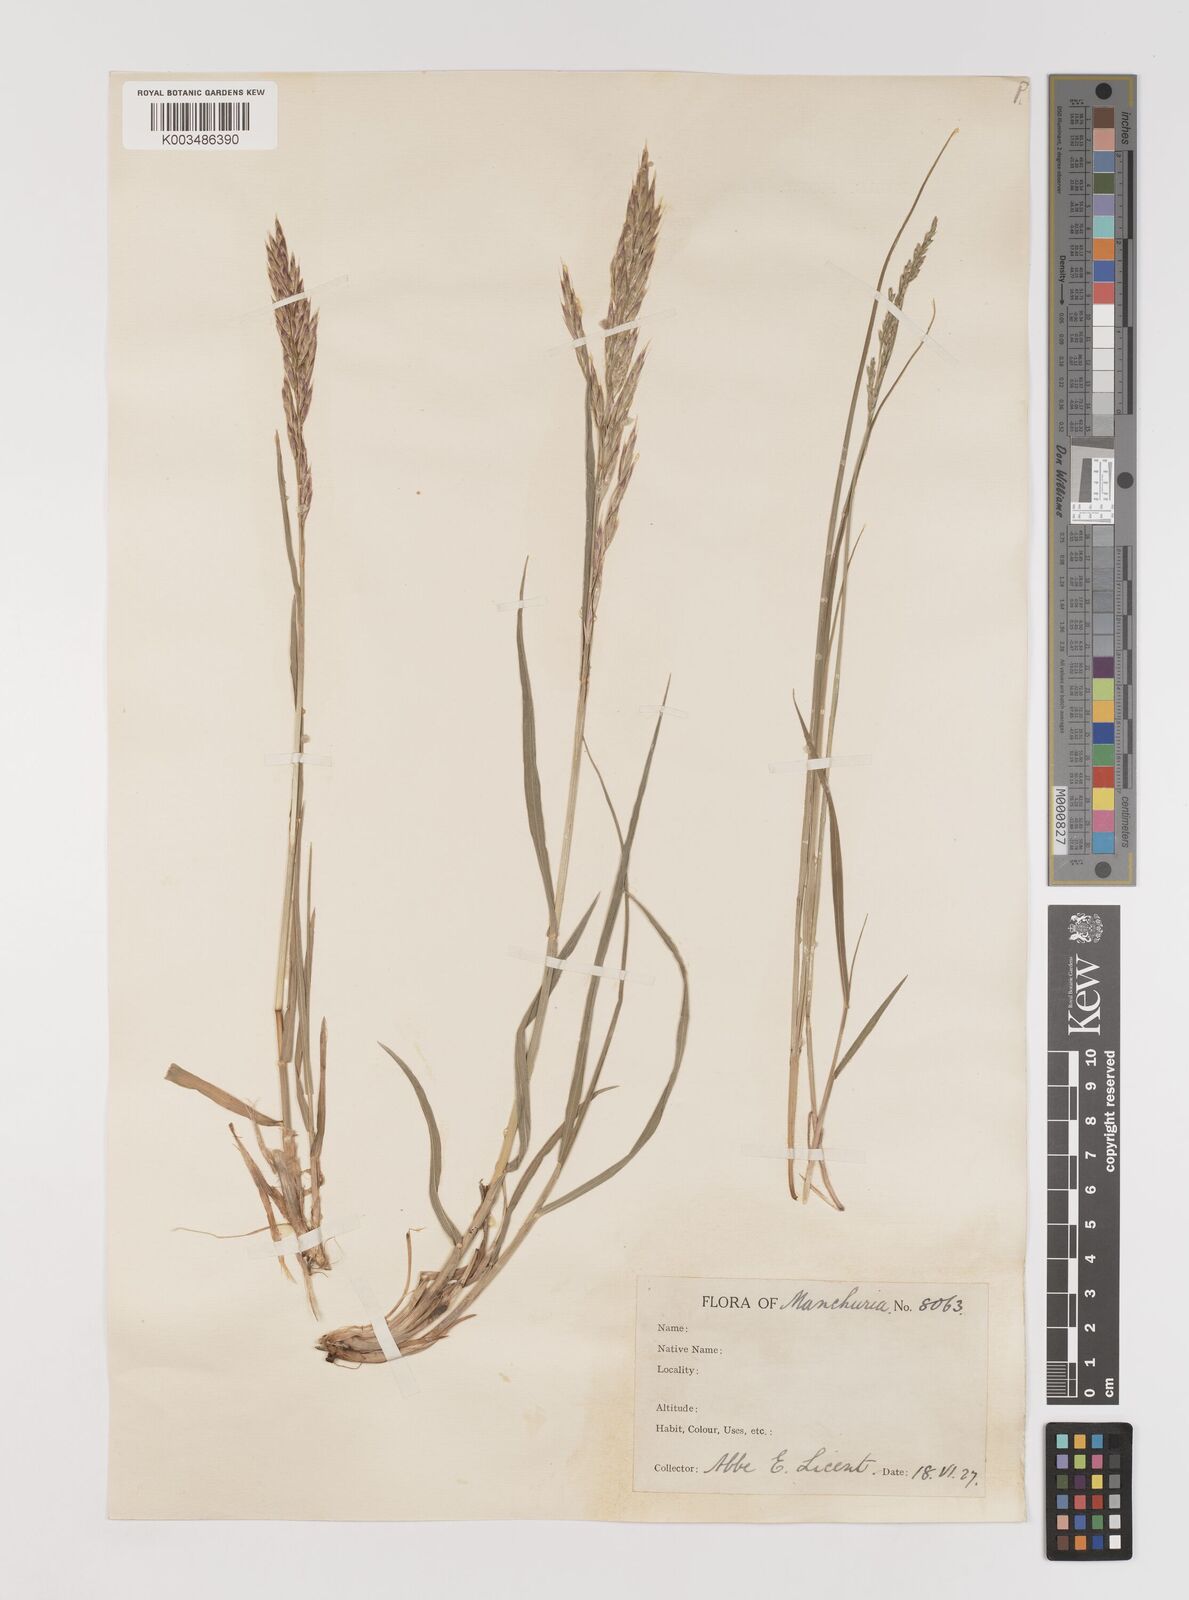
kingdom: Plantae
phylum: Tracheophyta
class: Liliopsida
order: Poales
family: Poaceae
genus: Bromus
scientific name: Bromus
